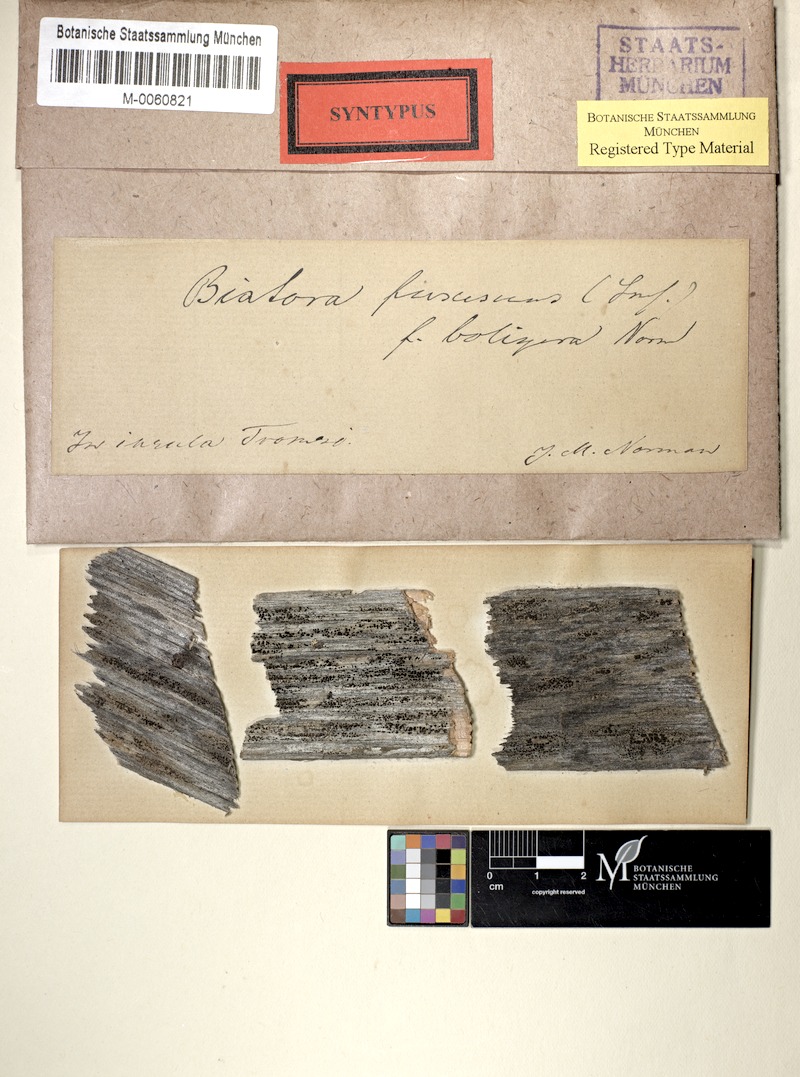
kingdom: Fungi
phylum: Ascomycota
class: Lecanoromycetes
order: Lecanorales
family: Lecanoraceae
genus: Lecanora
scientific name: Lecanora boligera
